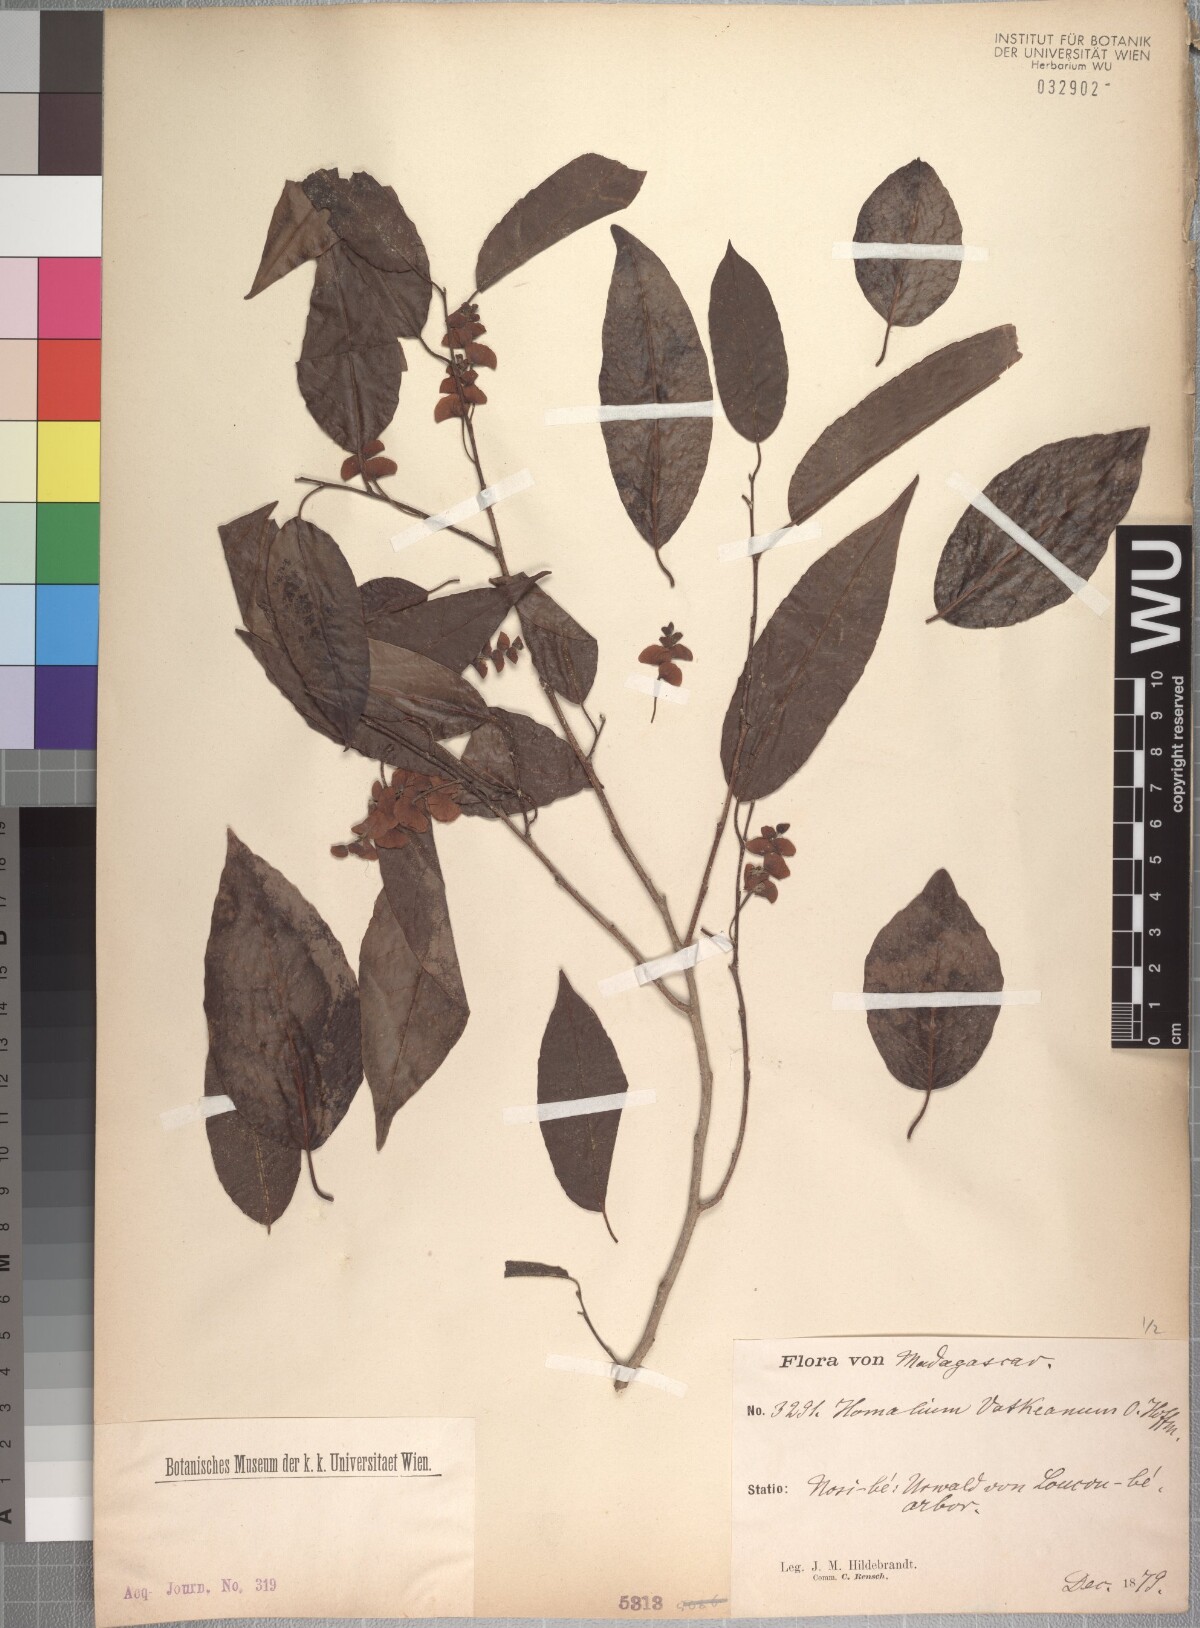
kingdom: Plantae
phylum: Tracheophyta
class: Magnoliopsida
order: Malpighiales
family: Salicaceae
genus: Homalium
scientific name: Homalium involucratum
